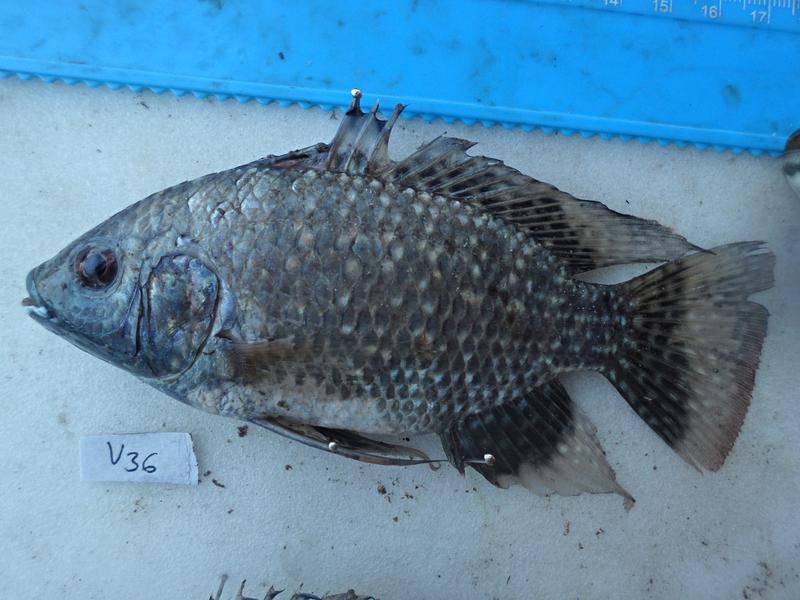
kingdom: Animalia
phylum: Chordata
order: Perciformes
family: Cichlidae
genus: Oreochromis
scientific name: Oreochromis leucostictus
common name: Blue spotted tilapia
